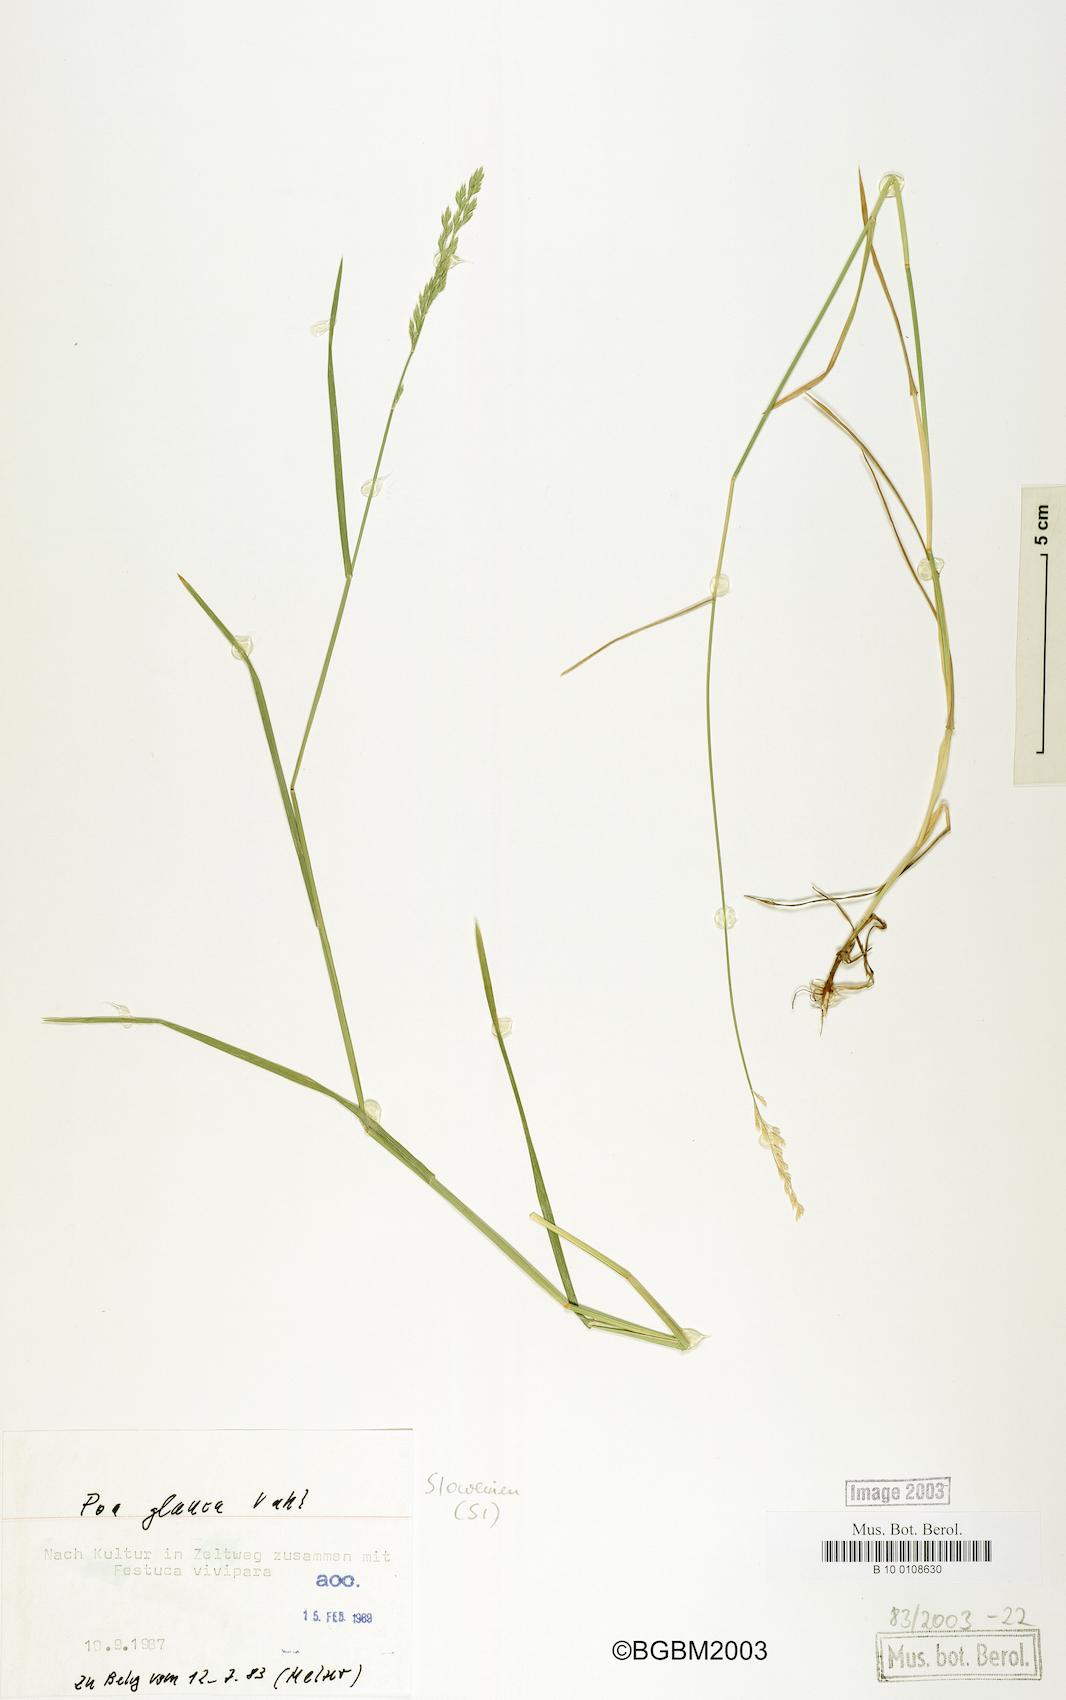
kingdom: Plantae
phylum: Tracheophyta
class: Liliopsida
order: Poales
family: Poaceae
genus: Poa
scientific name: Poa glauca
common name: Glaucous bluegrass
